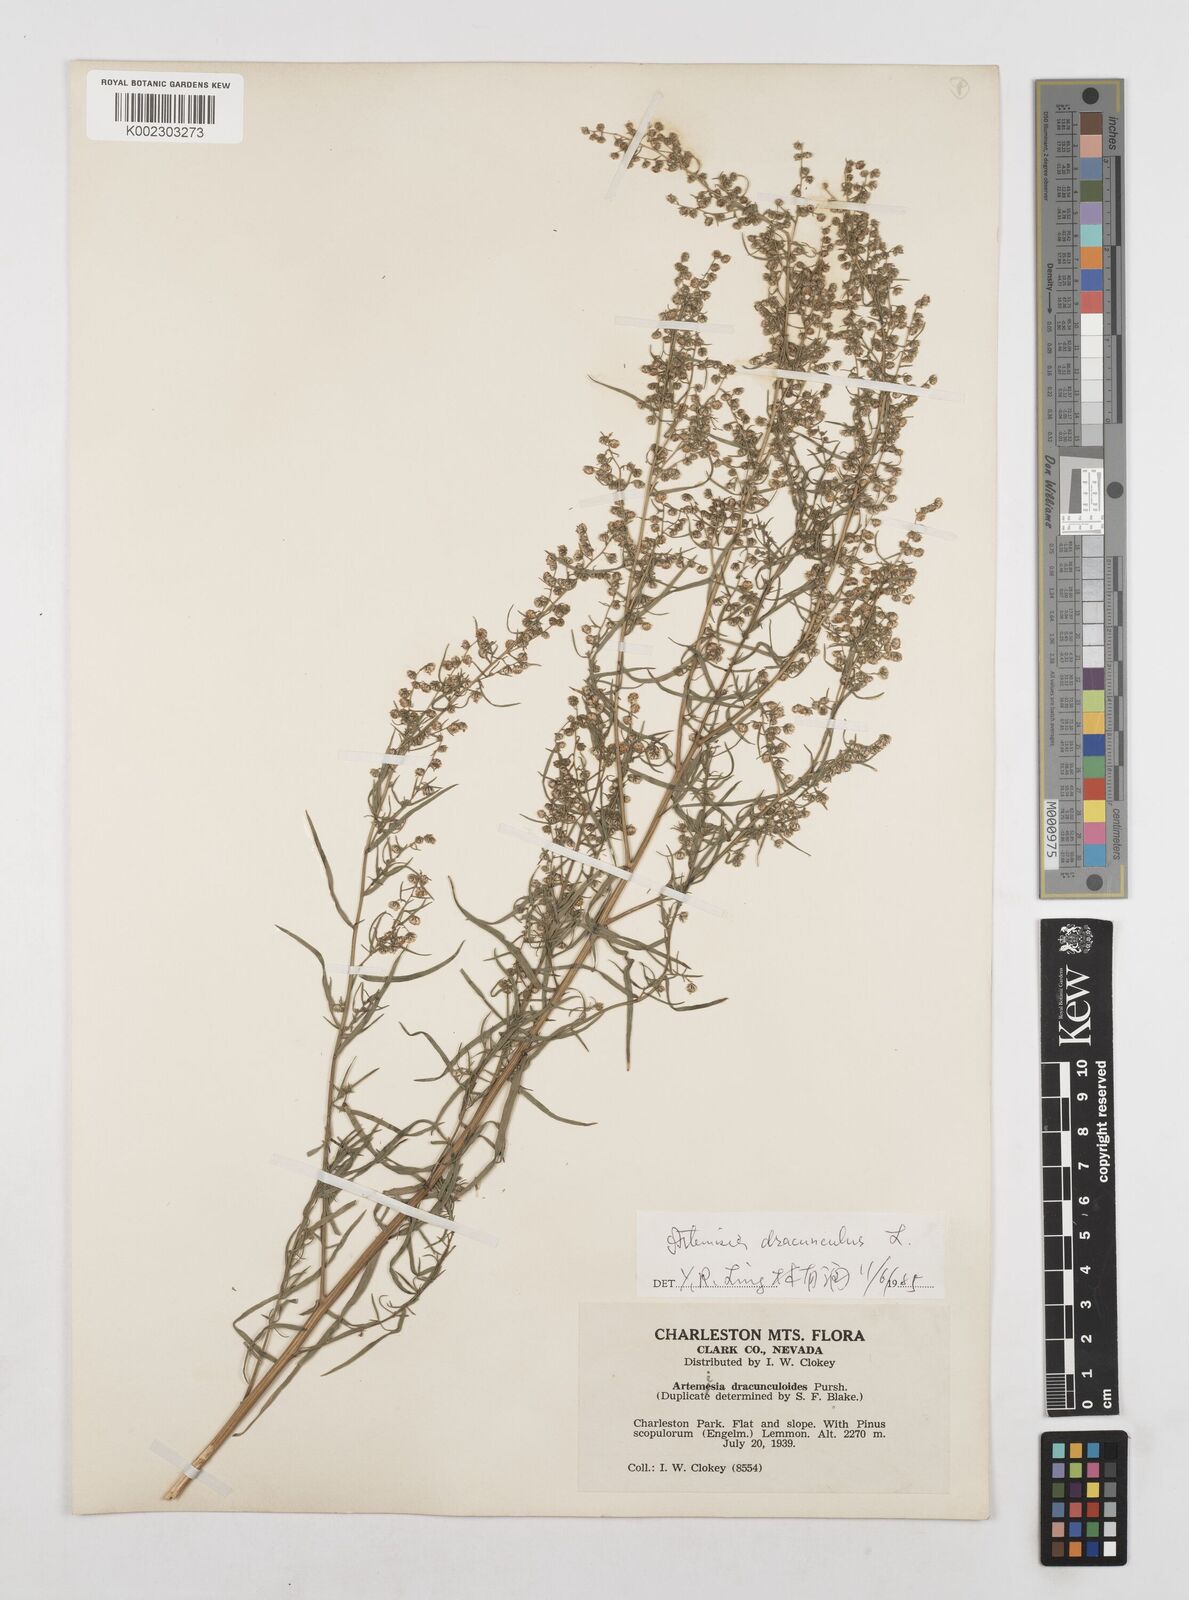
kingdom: Plantae
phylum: Tracheophyta
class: Magnoliopsida
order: Asterales
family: Asteraceae
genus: Artemisia
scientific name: Artemisia dracunculus
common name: Tarragon
